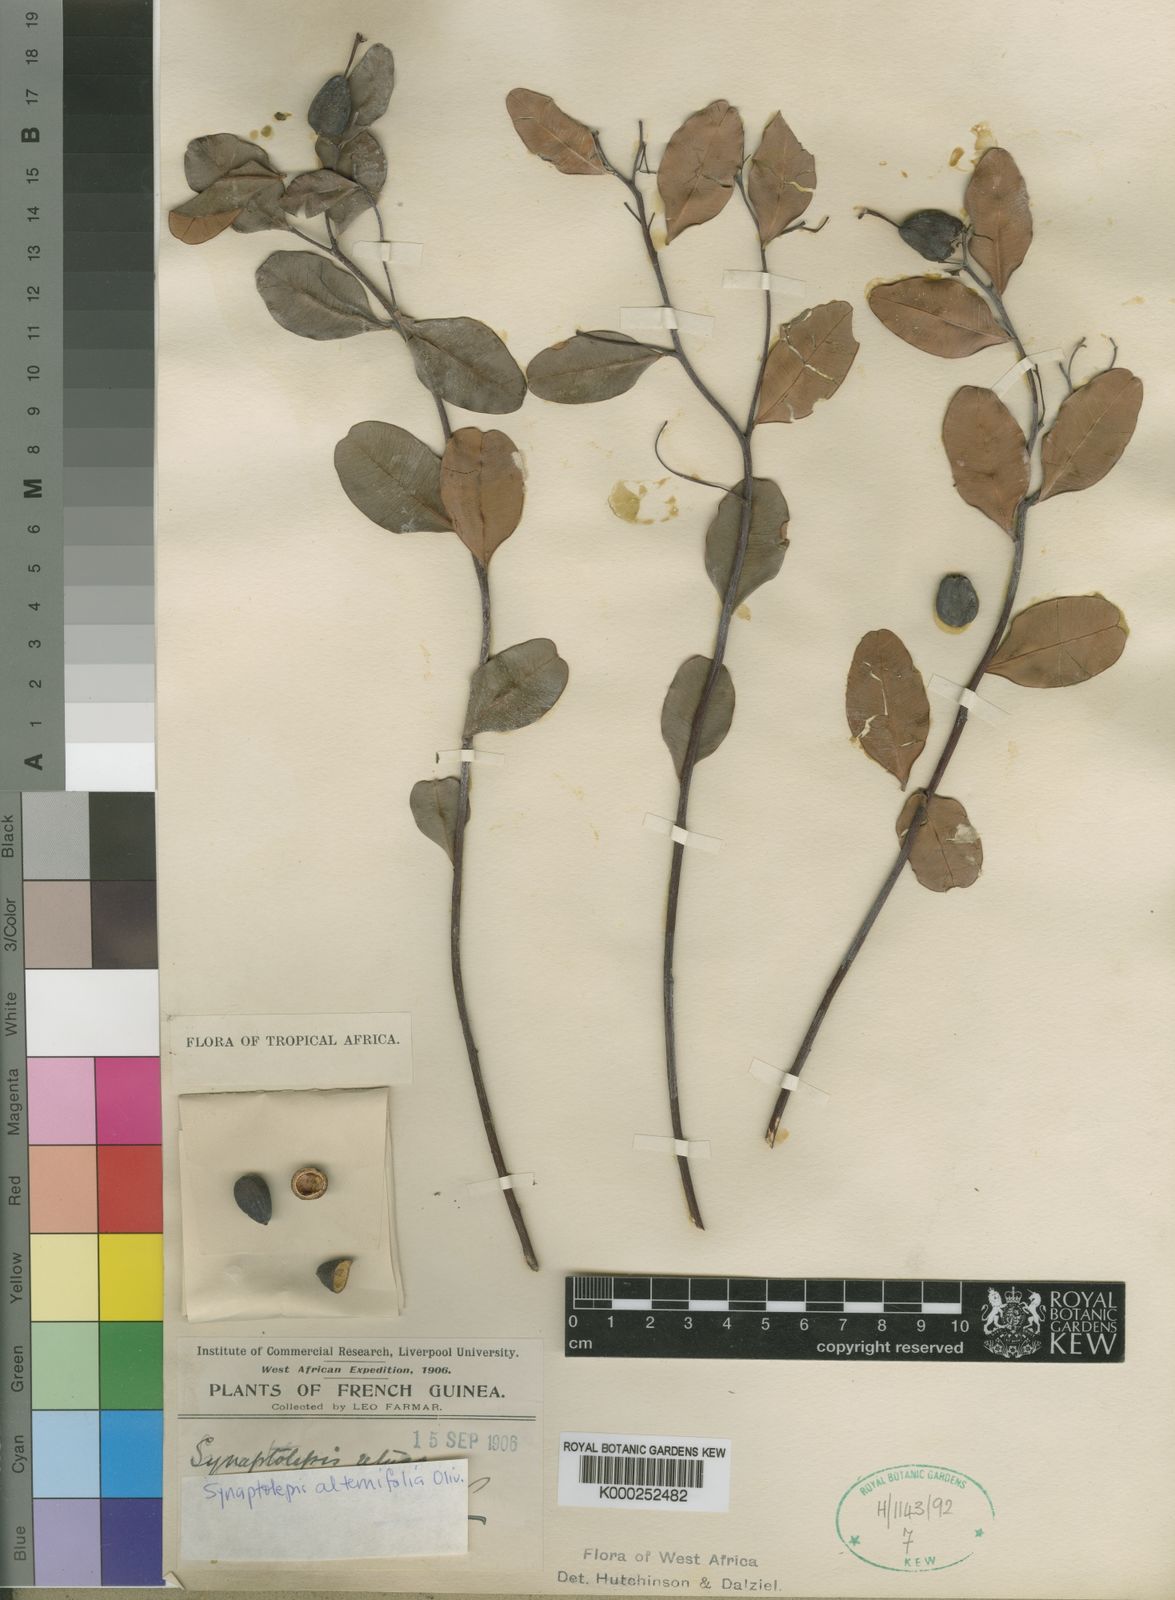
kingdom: Plantae
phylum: Tracheophyta
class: Magnoliopsida
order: Malvales
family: Thymelaeaceae
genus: Synaptolepis
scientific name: Synaptolepis alternifolia
